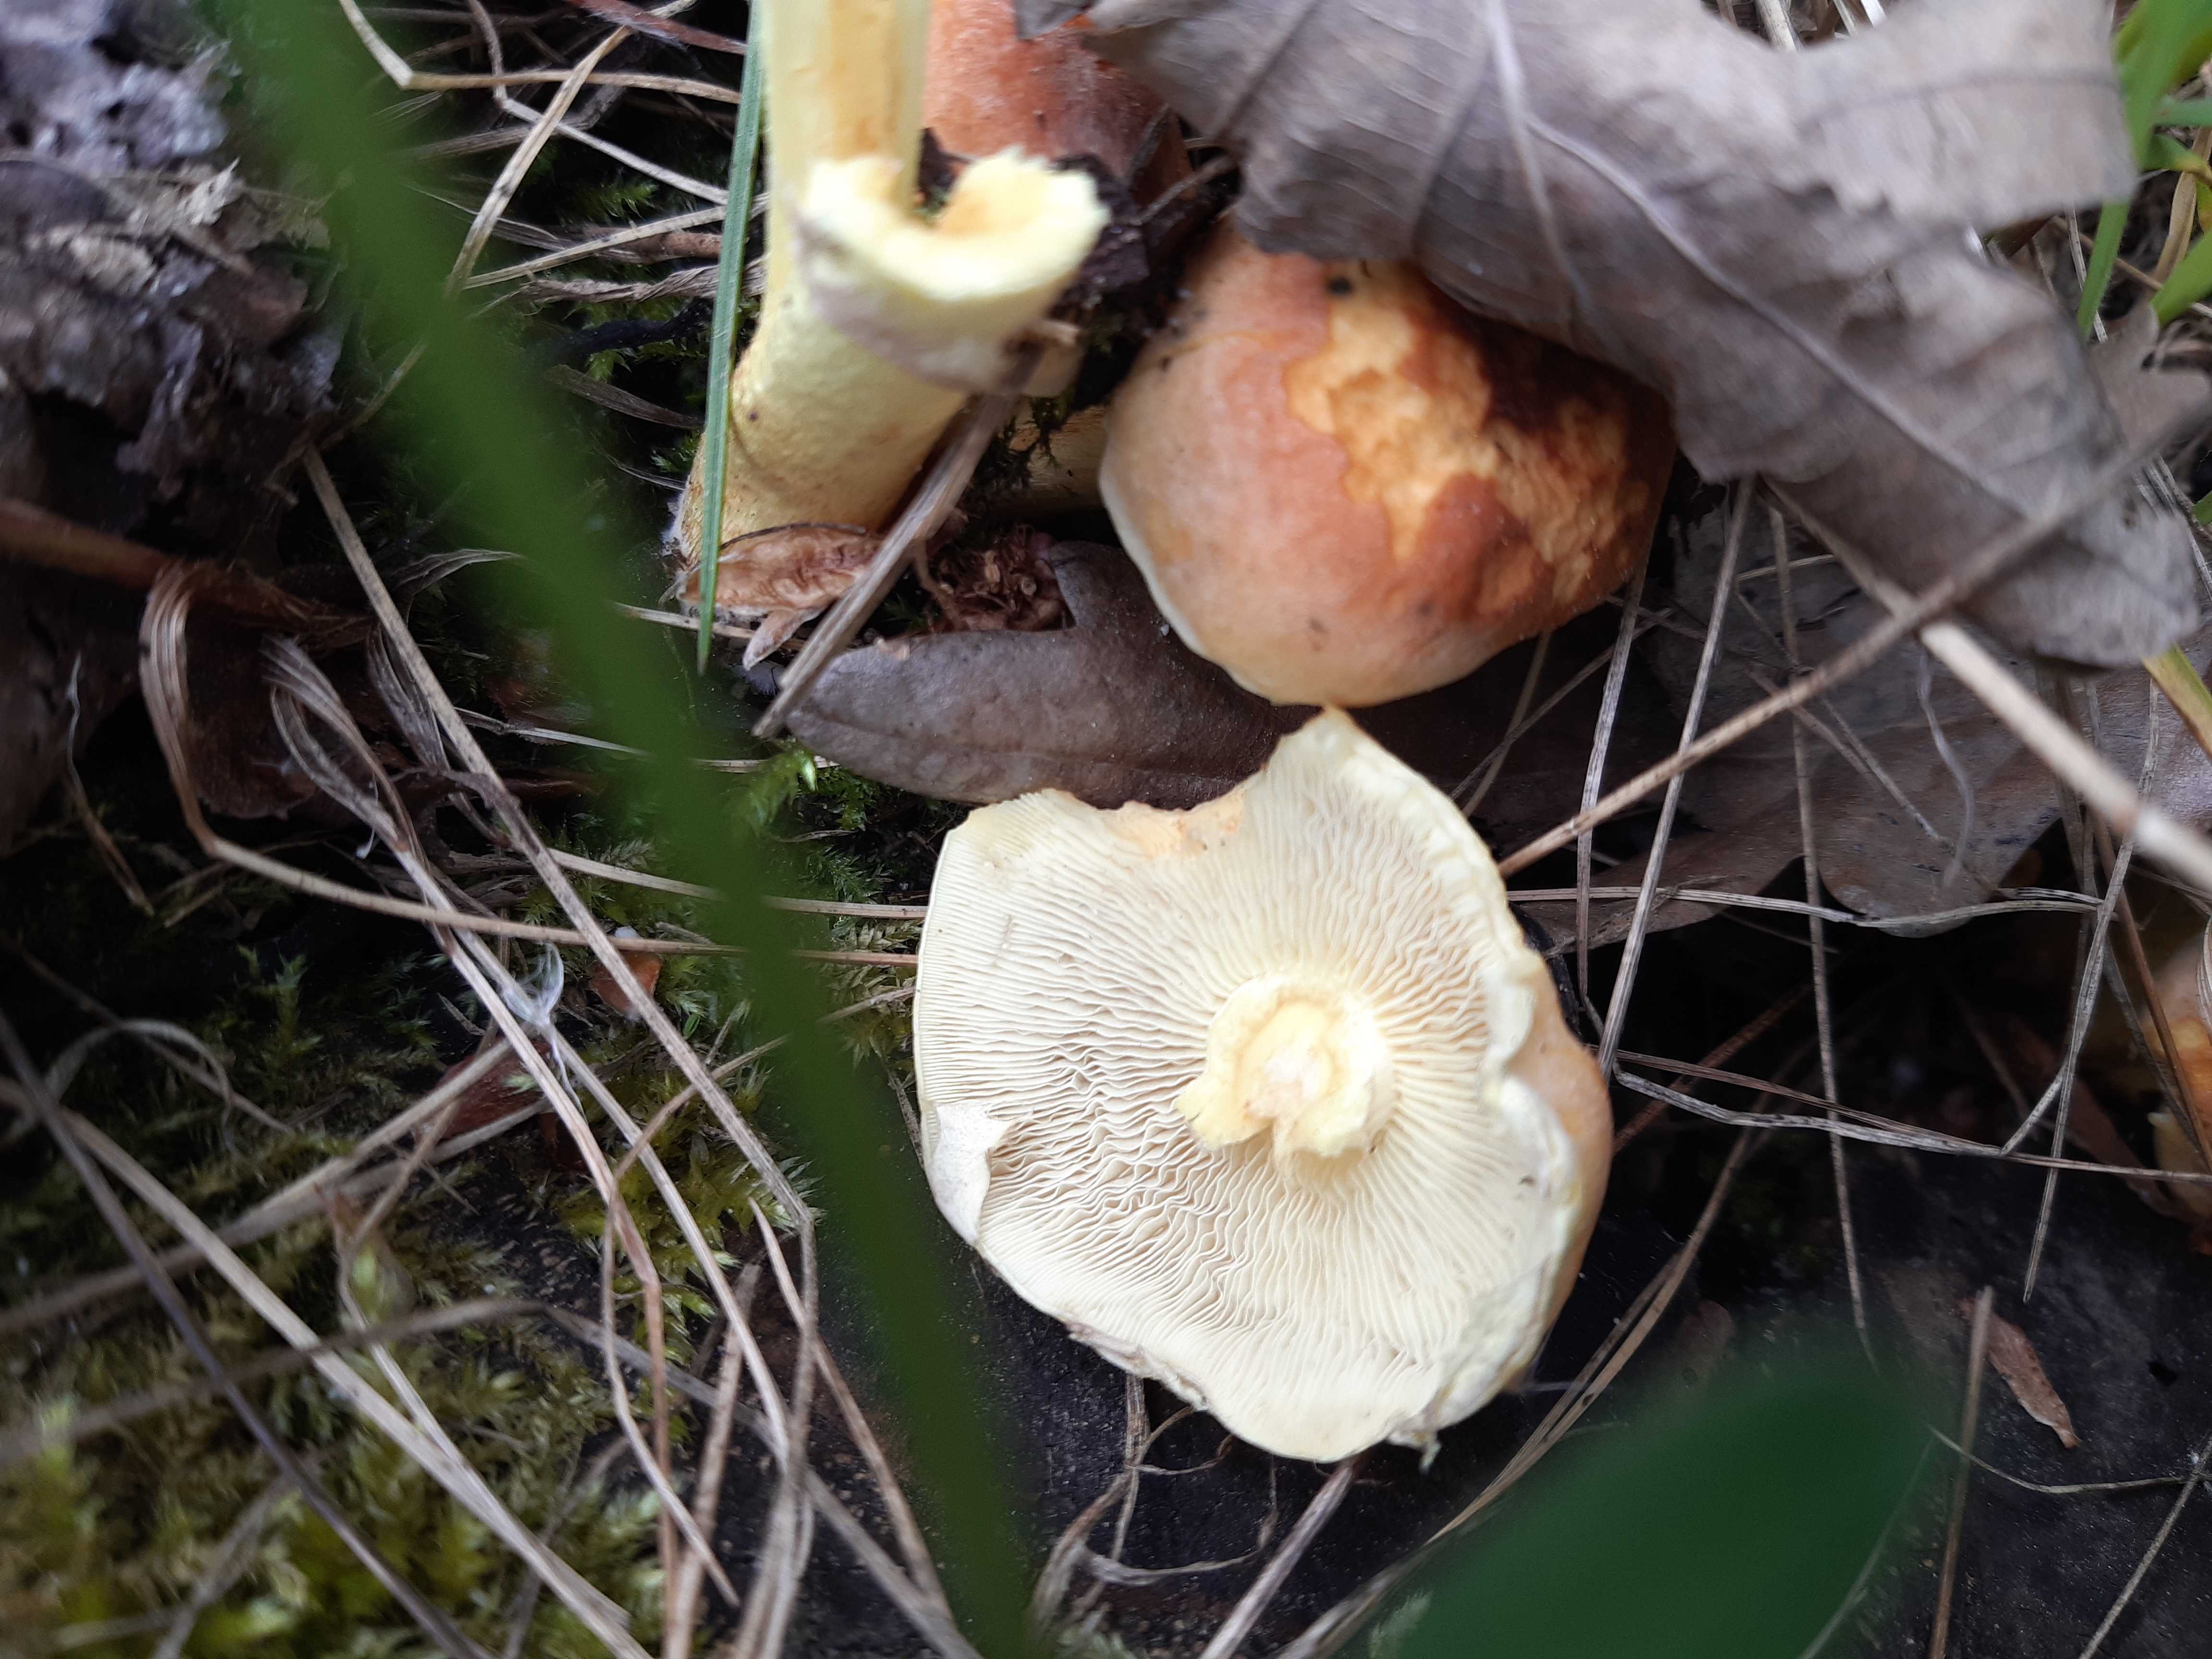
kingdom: Fungi
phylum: Basidiomycota
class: Agaricomycetes
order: Agaricales
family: Strophariaceae
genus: Hypholoma
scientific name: Hypholoma fasciculare
